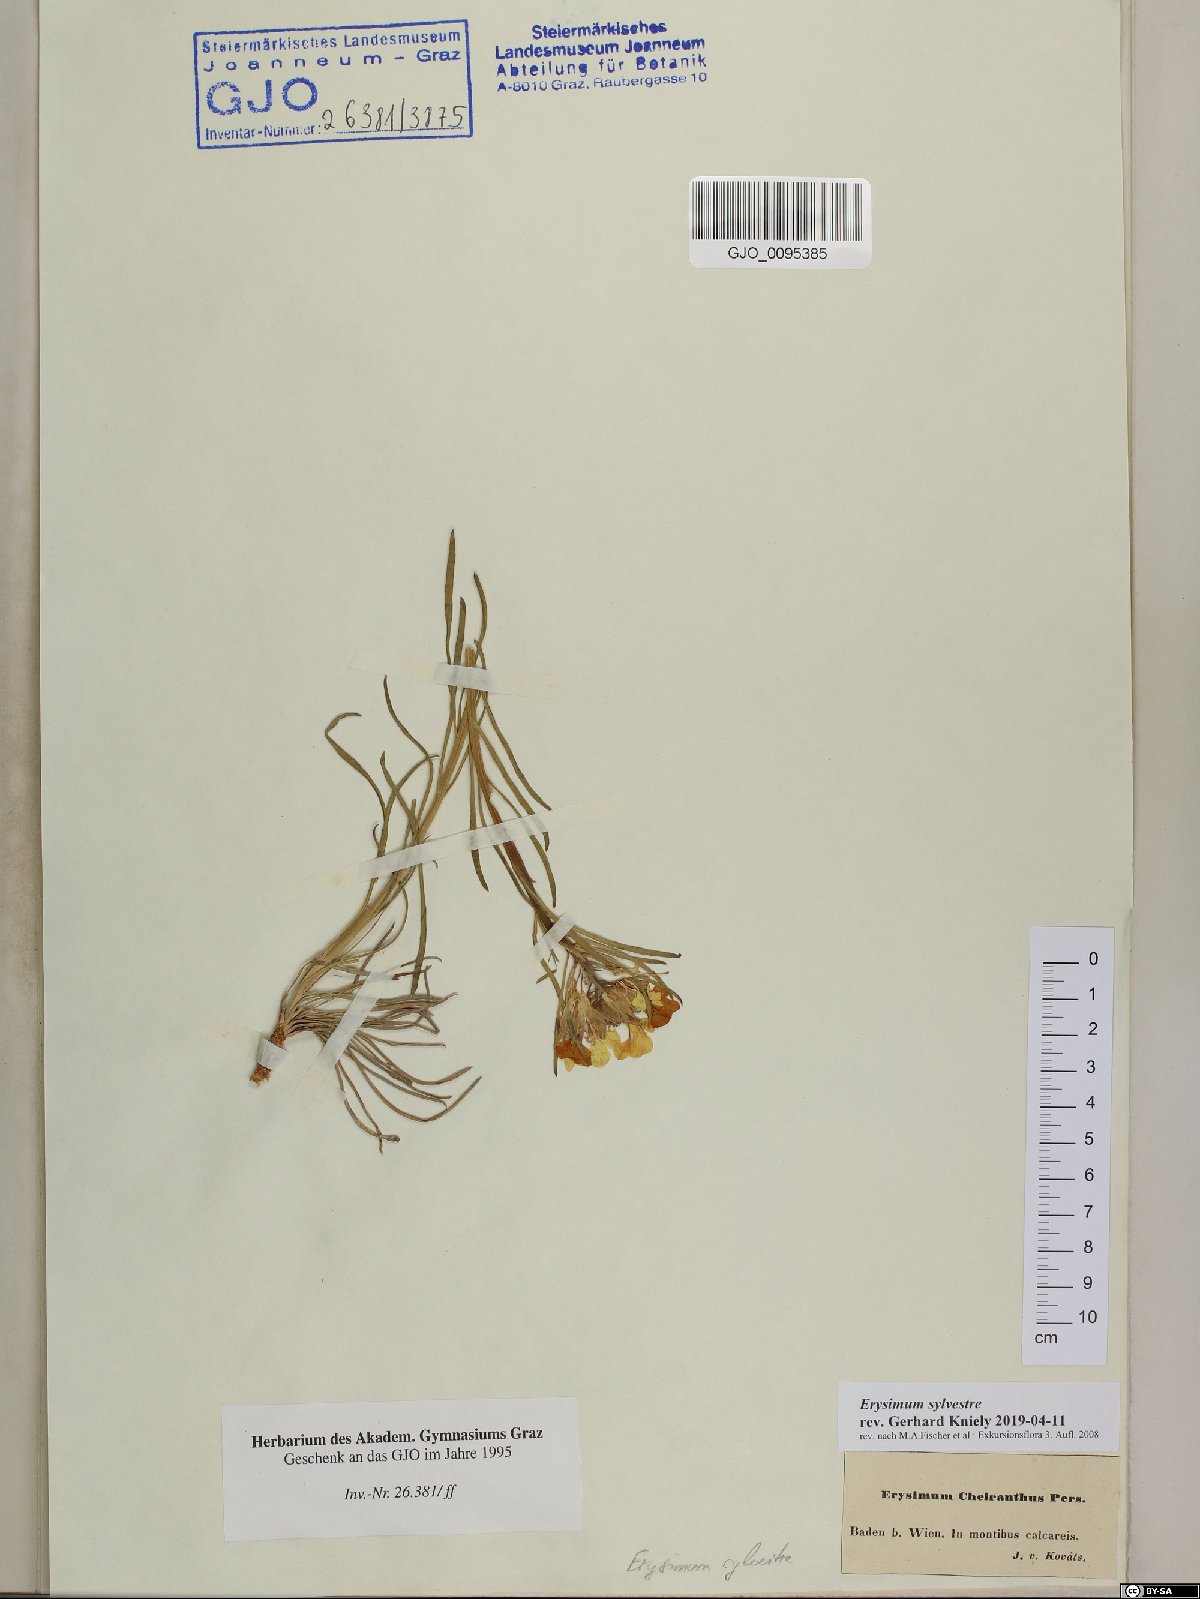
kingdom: Plantae
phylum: Tracheophyta
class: Magnoliopsida
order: Brassicales
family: Brassicaceae
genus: Erysimum
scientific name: Erysimum sylvestre
